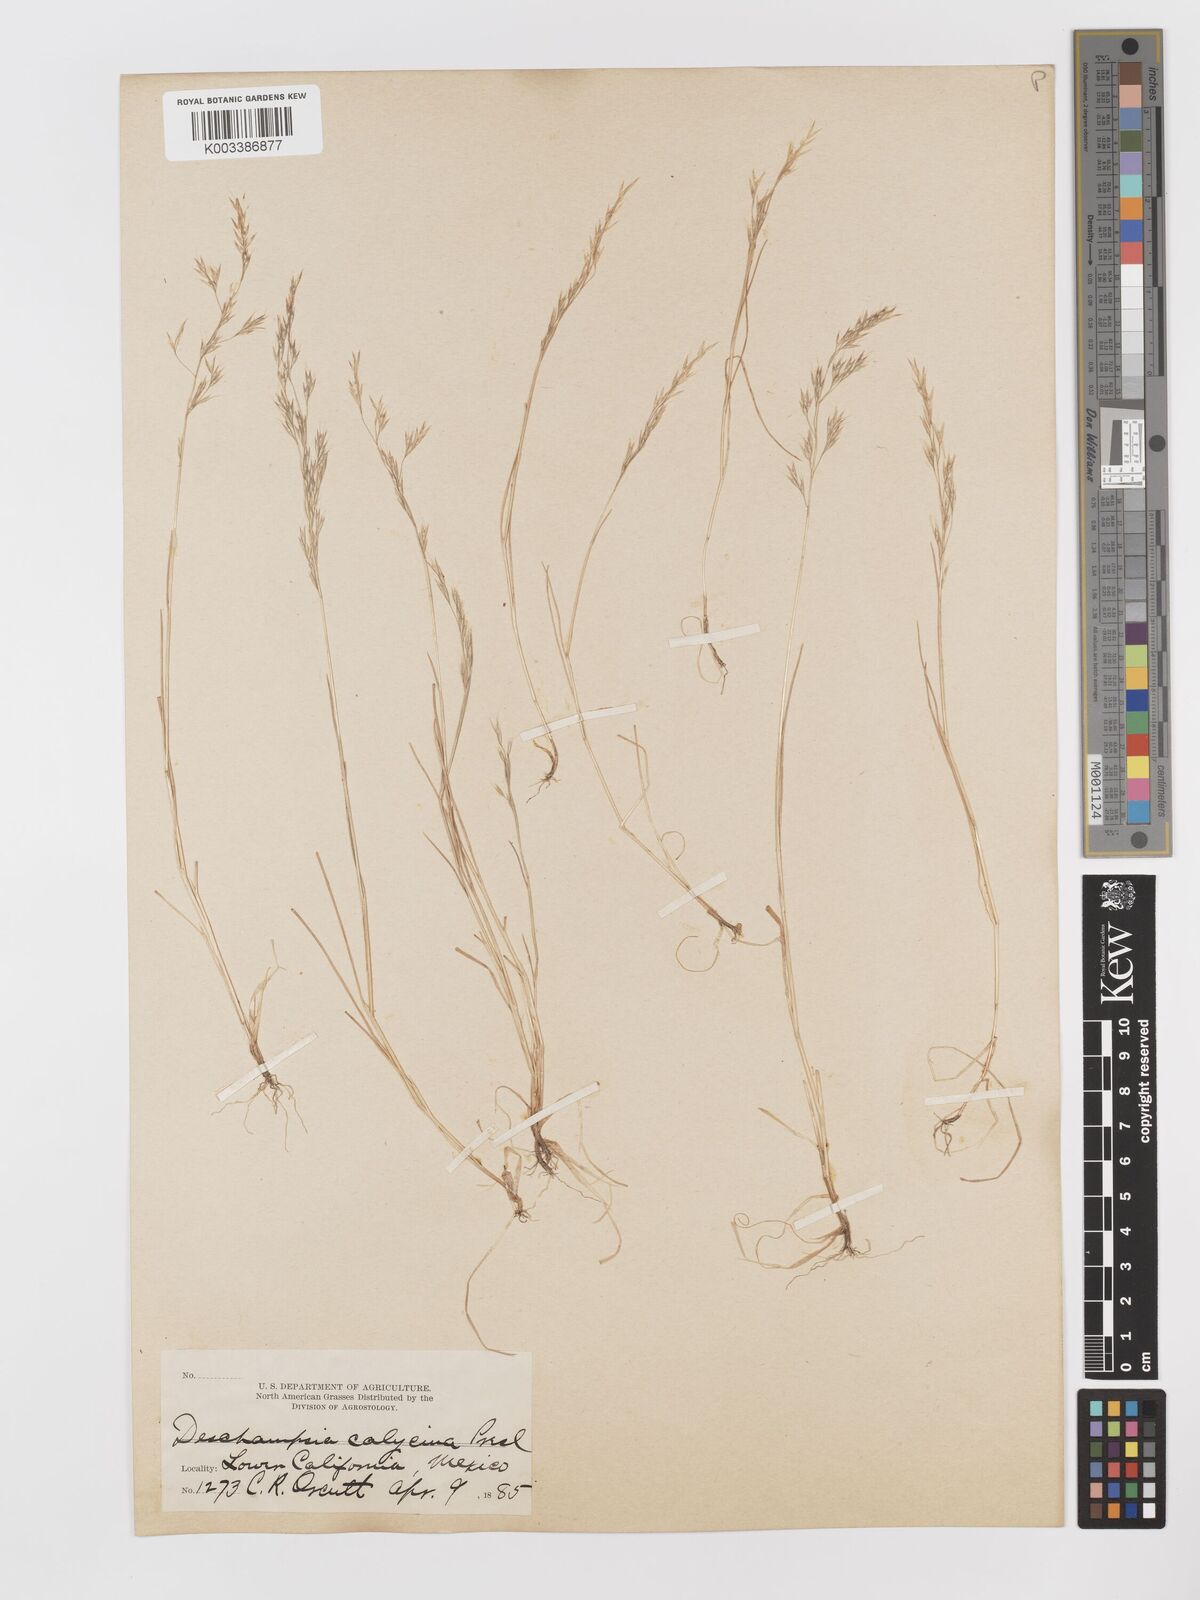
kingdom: Plantae
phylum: Tracheophyta
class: Liliopsida
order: Poales
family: Poaceae
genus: Deschampsia
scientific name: Deschampsia danthonioides
